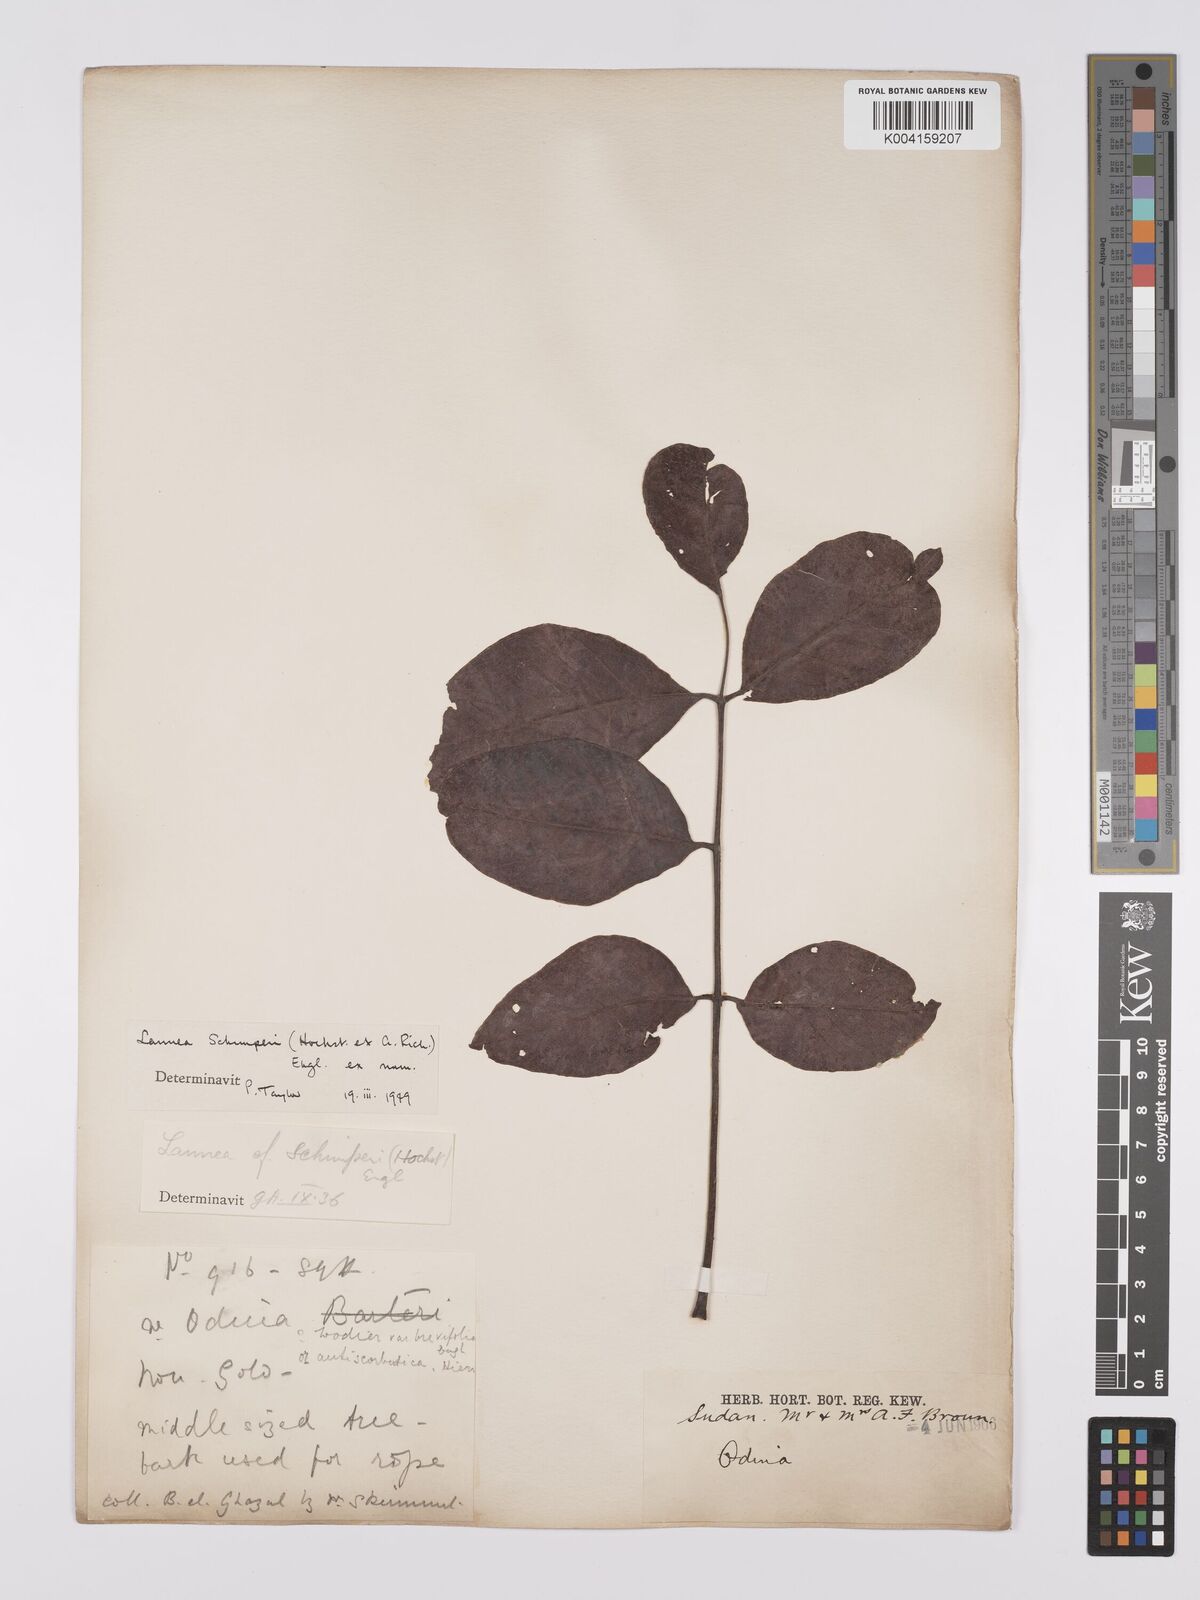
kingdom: Plantae
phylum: Tracheophyta
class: Magnoliopsida
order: Sapindales
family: Anacardiaceae
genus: Lannea
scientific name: Lannea schimperi
